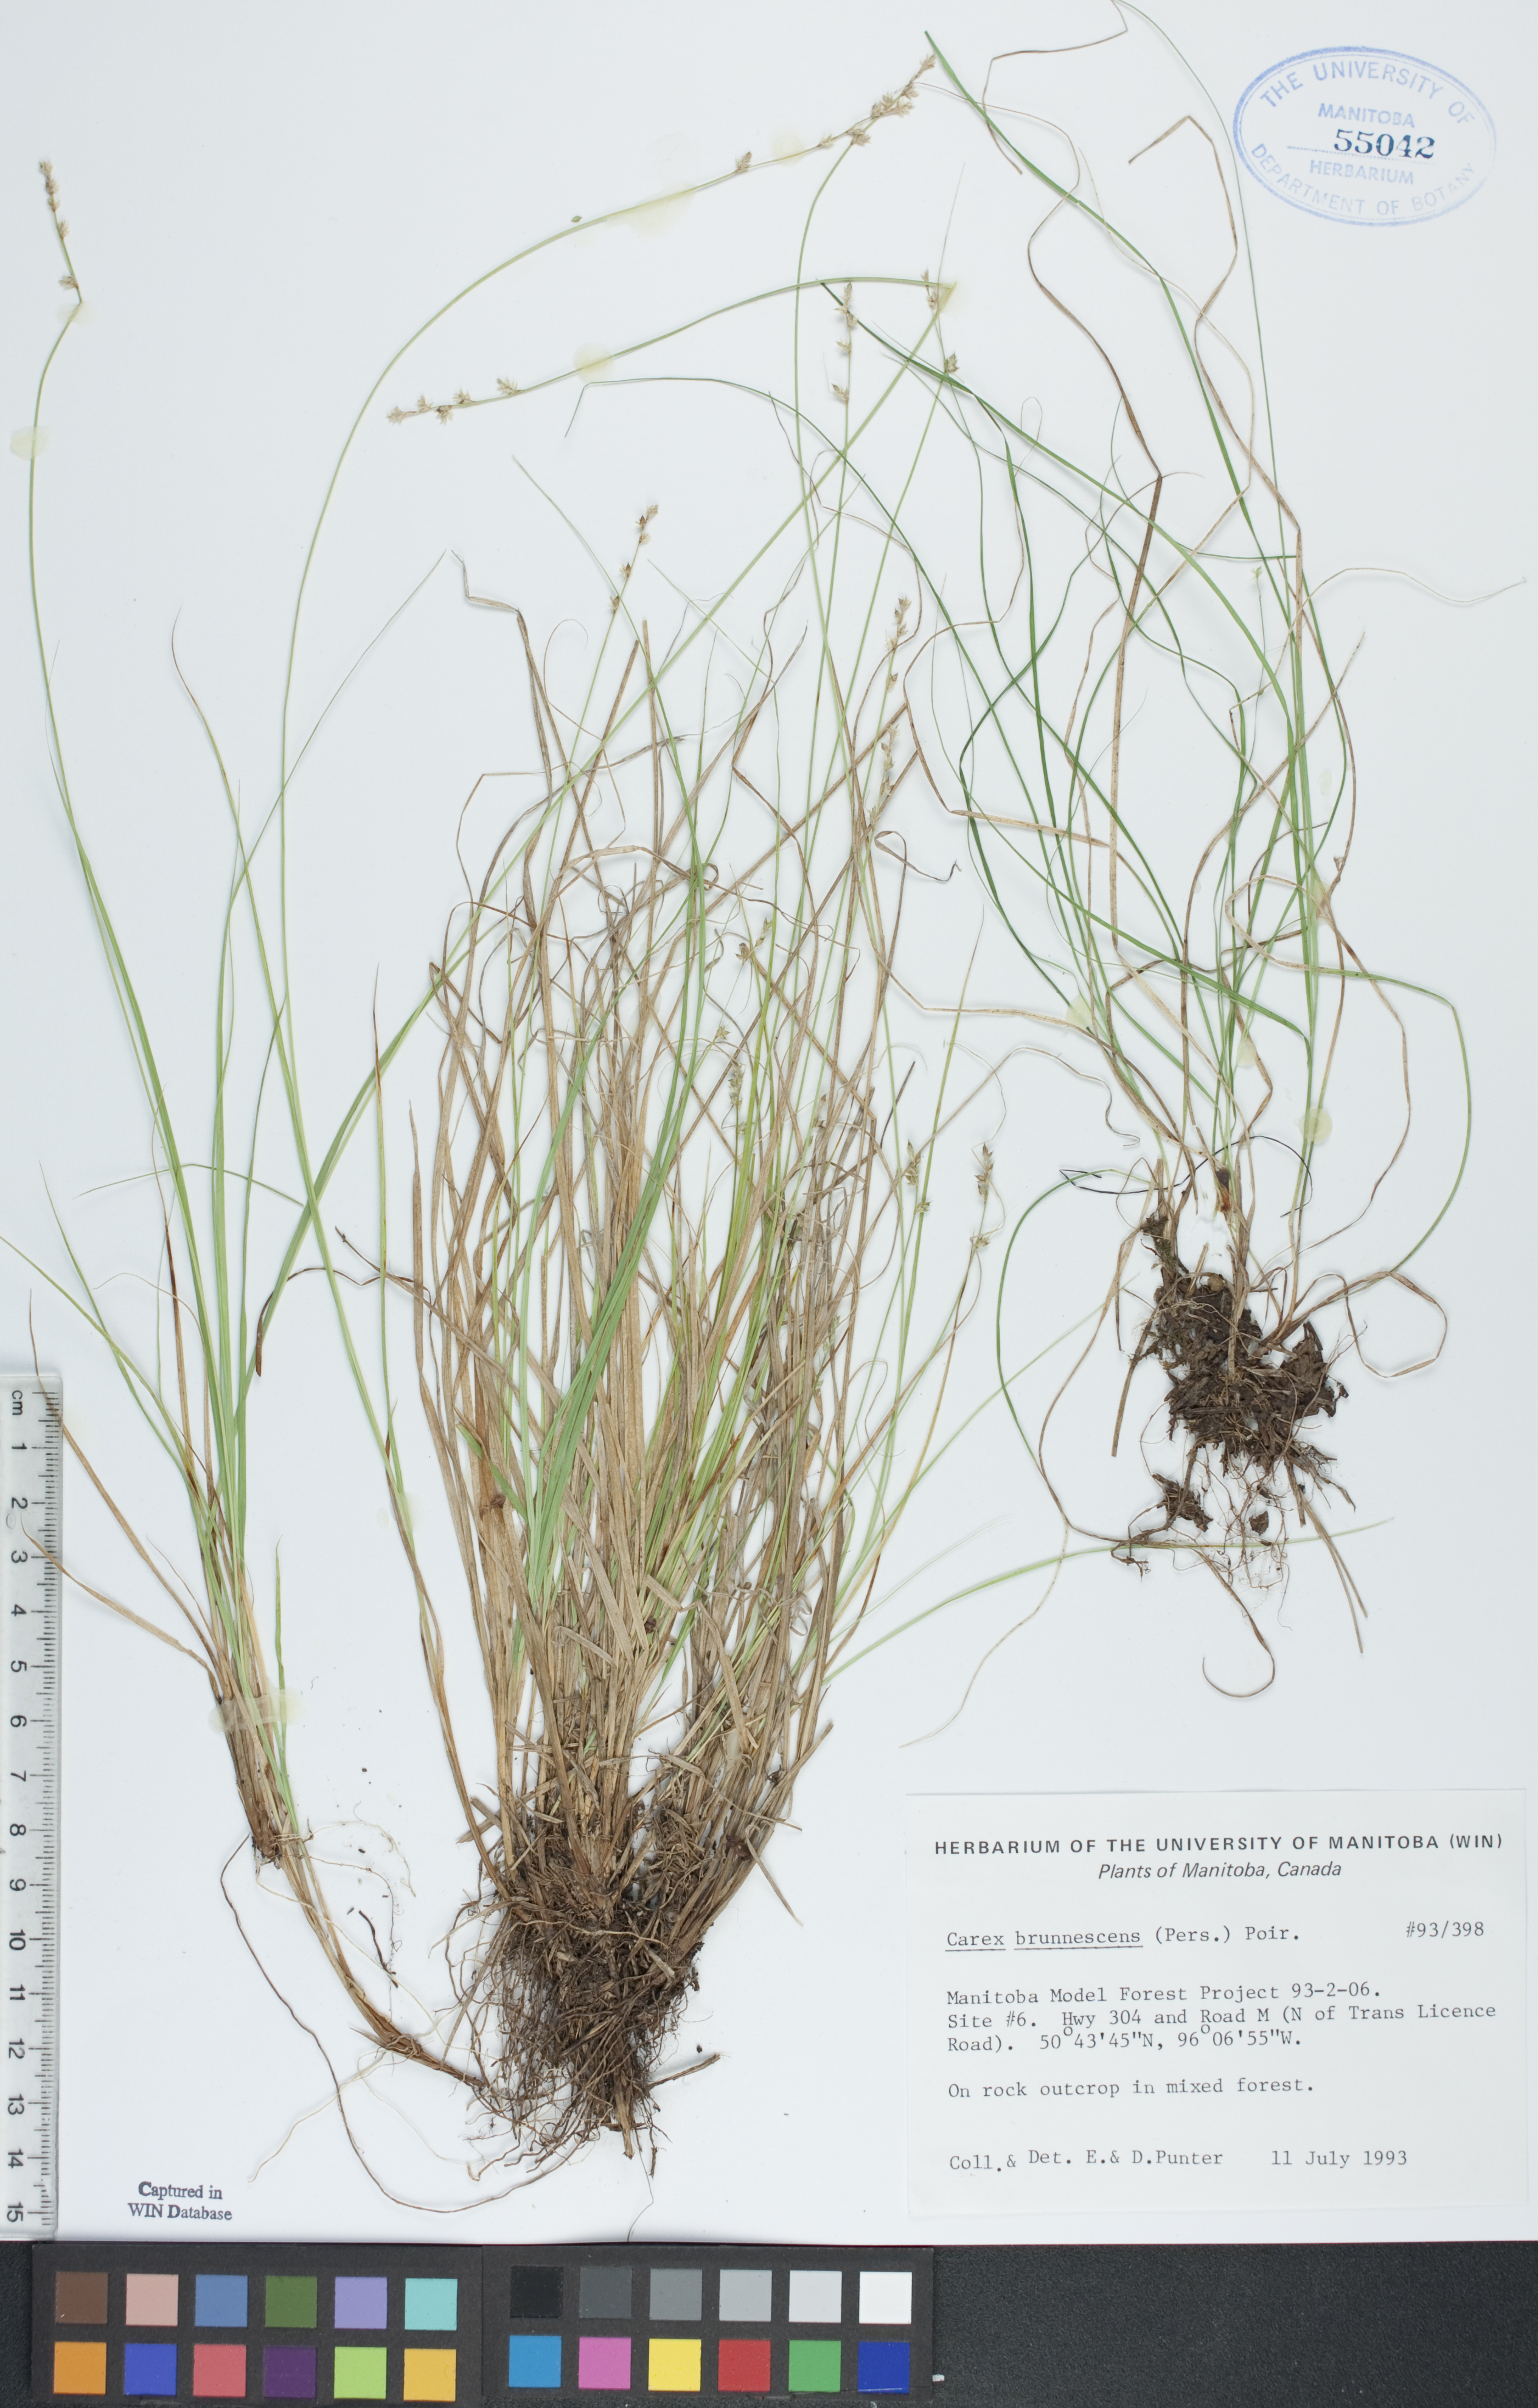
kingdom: Plantae
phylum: Tracheophyta
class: Liliopsida
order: Poales
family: Cyperaceae
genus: Carex
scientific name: Carex brunnescens
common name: Brown sedge
